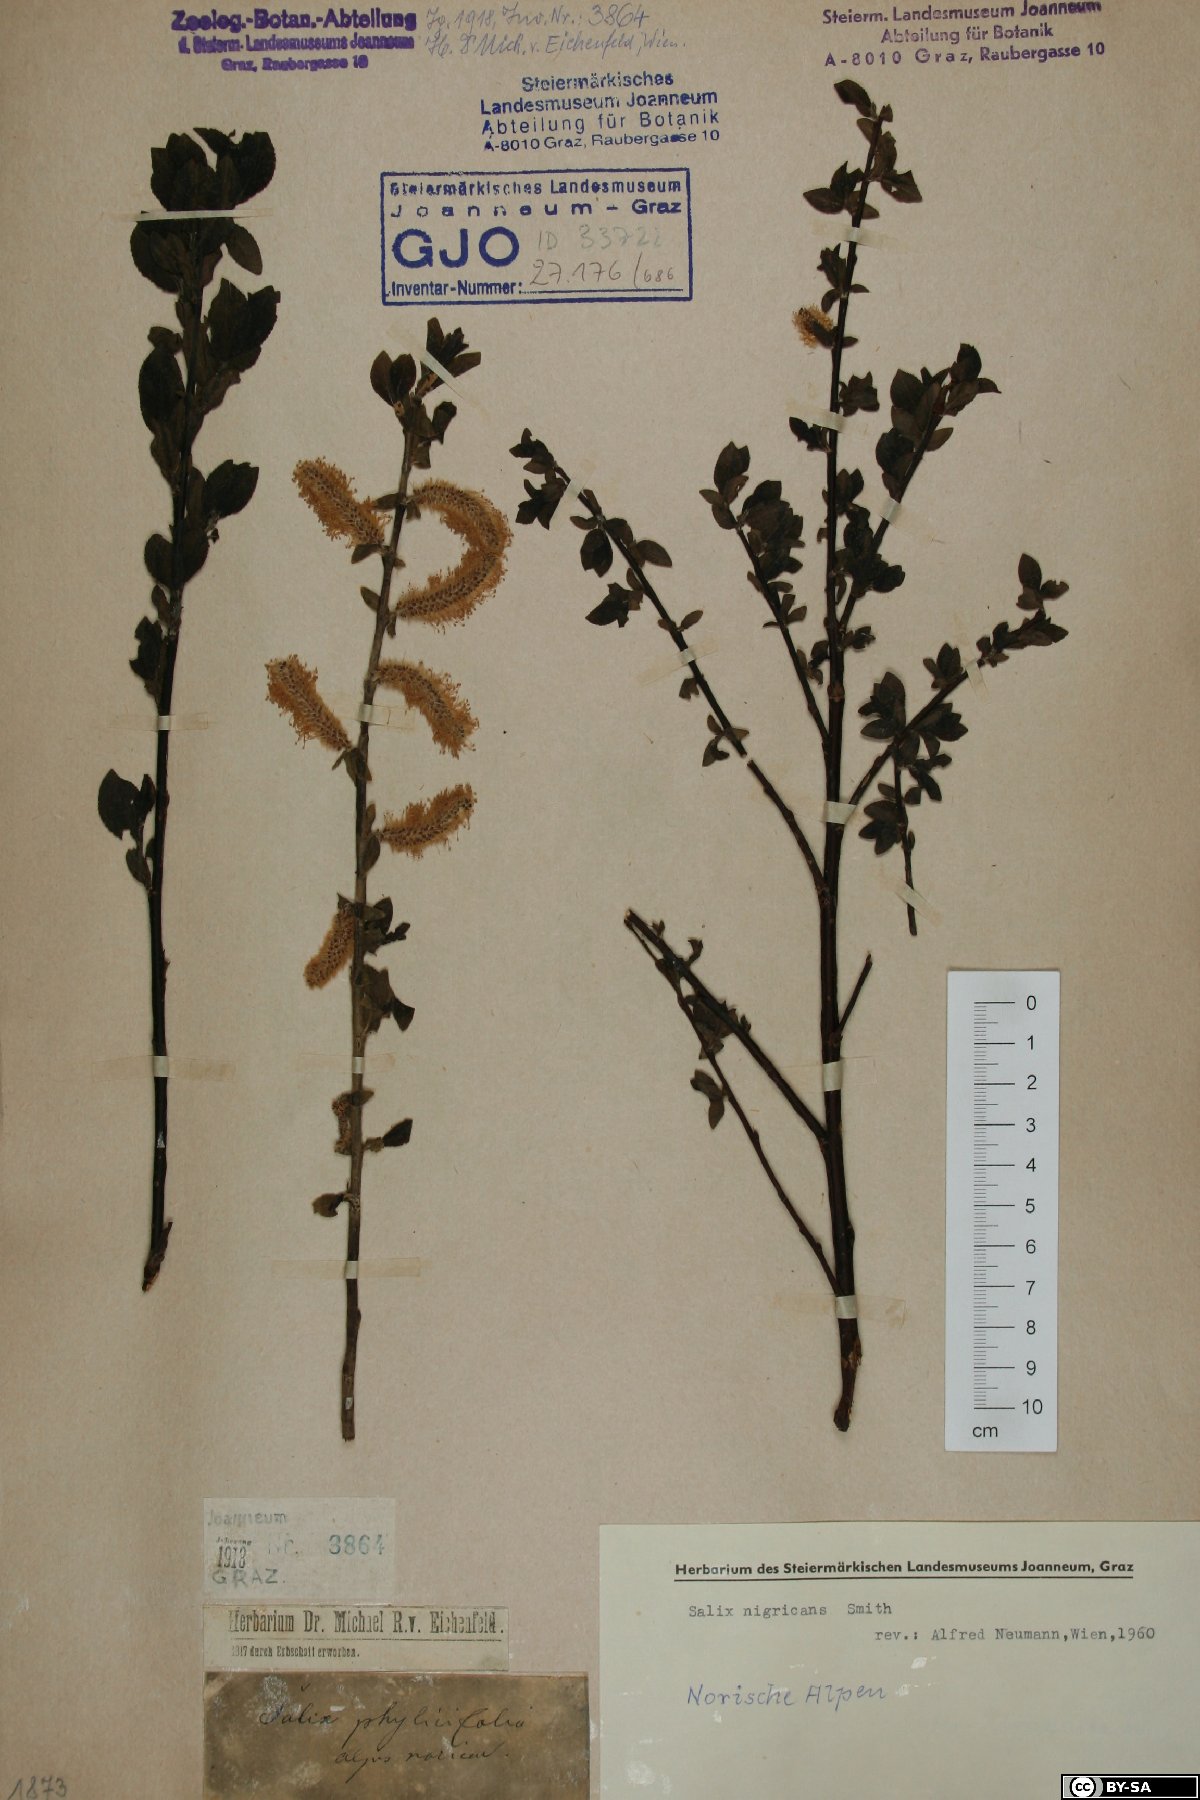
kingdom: Plantae
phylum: Tracheophyta
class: Magnoliopsida
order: Malpighiales
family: Salicaceae
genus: Salix
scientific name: Salix myrsinifolia
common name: Dark-leaved willow
